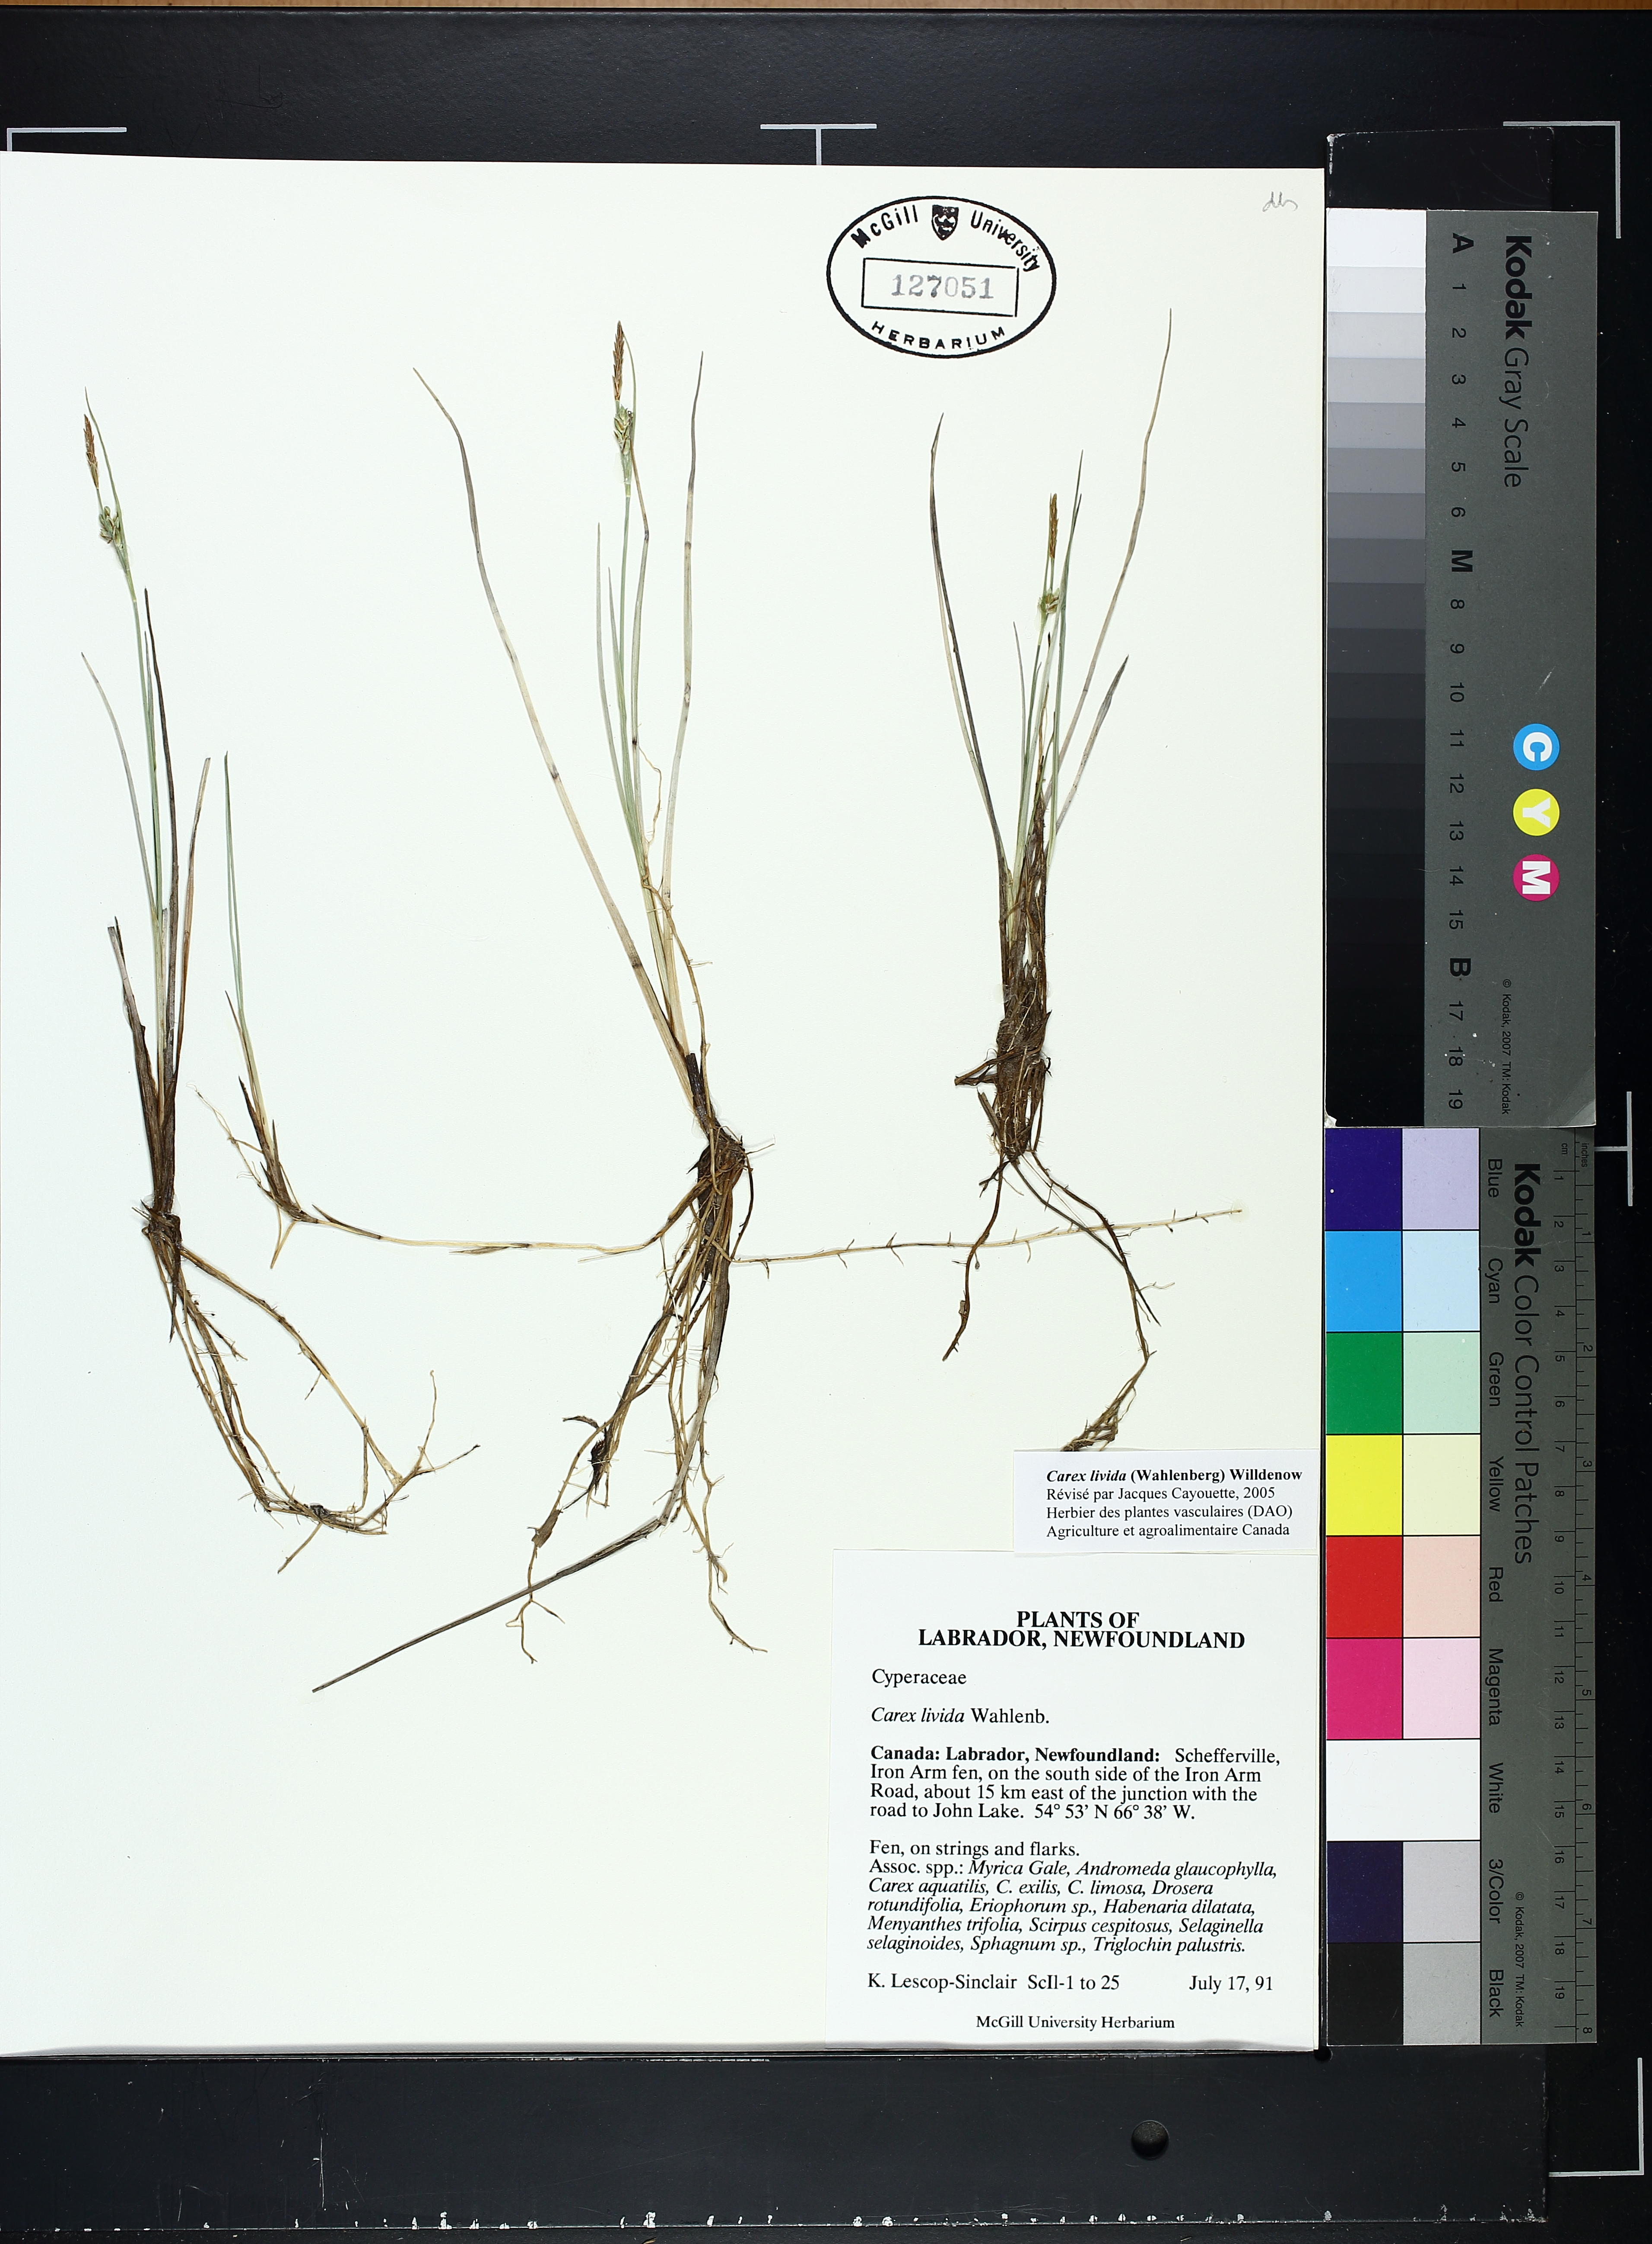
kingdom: Plantae
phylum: Tracheophyta
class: Liliopsida
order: Poales
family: Cyperaceae
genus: Carex
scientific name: Carex livida
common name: Livid sedge
